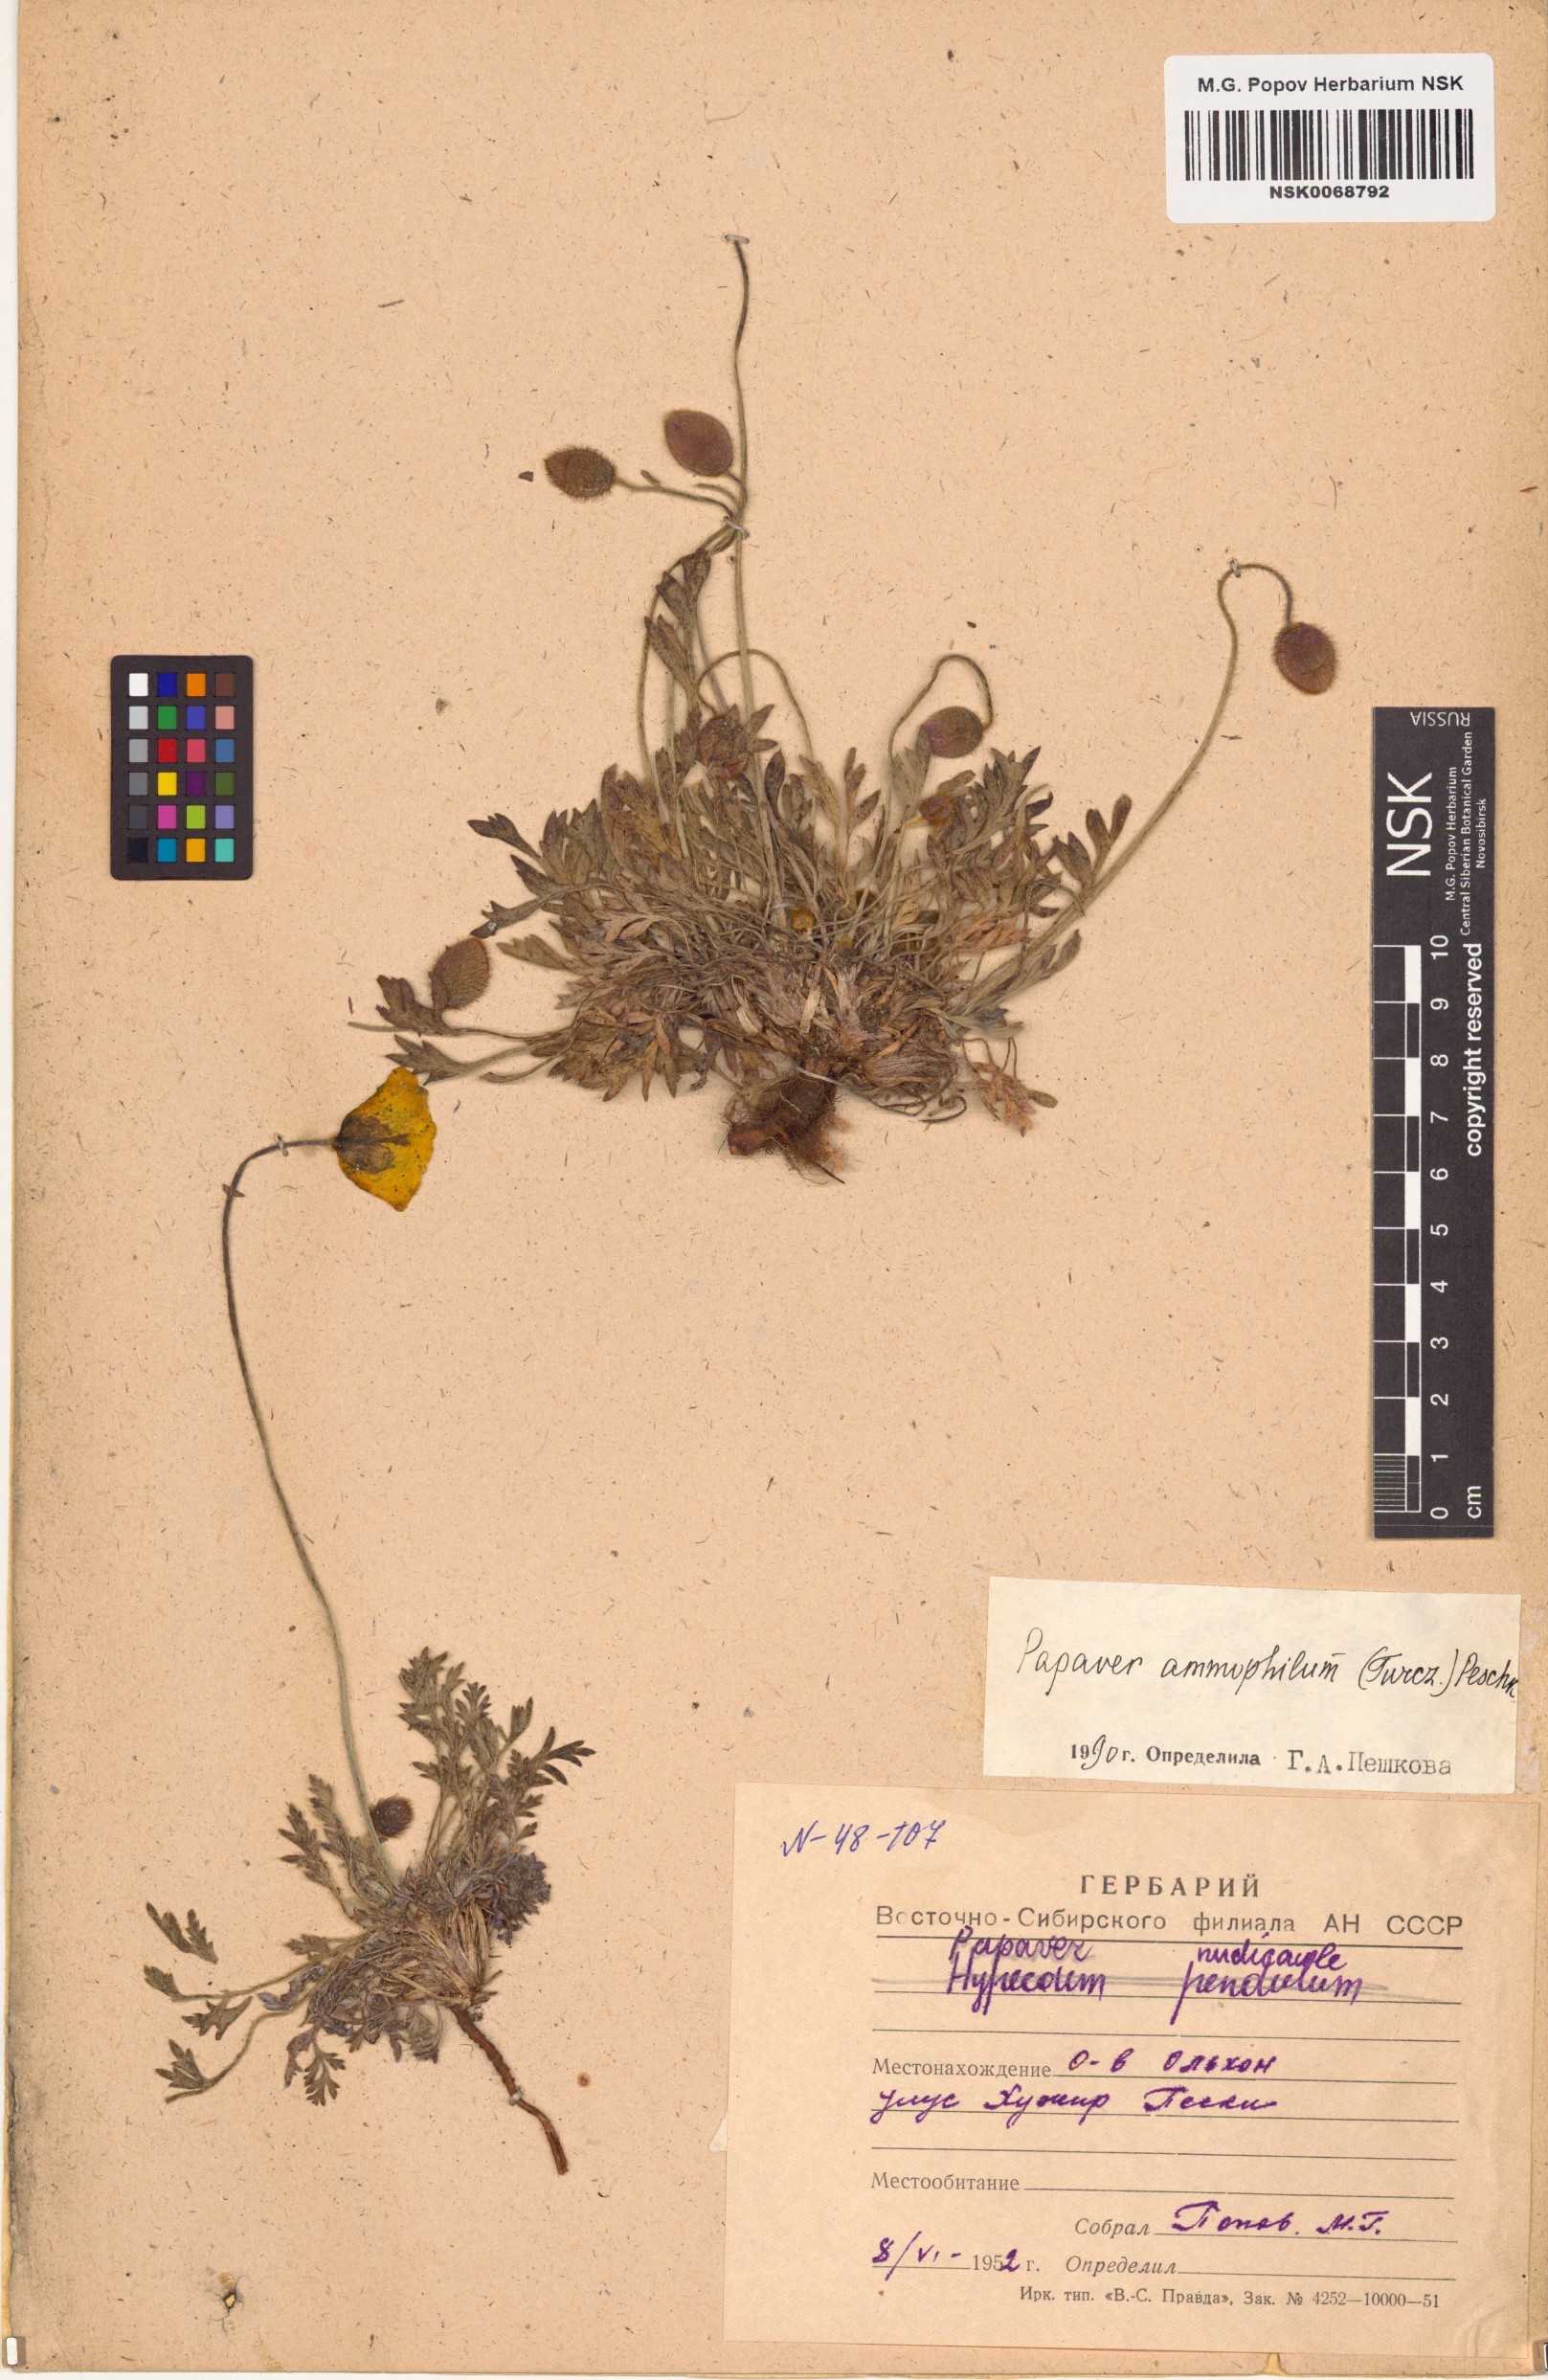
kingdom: Plantae
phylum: Tracheophyta
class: Magnoliopsida
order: Ranunculales
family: Papaveraceae
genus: Papaver
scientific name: Papaver nudicaule
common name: Arctic poppy
